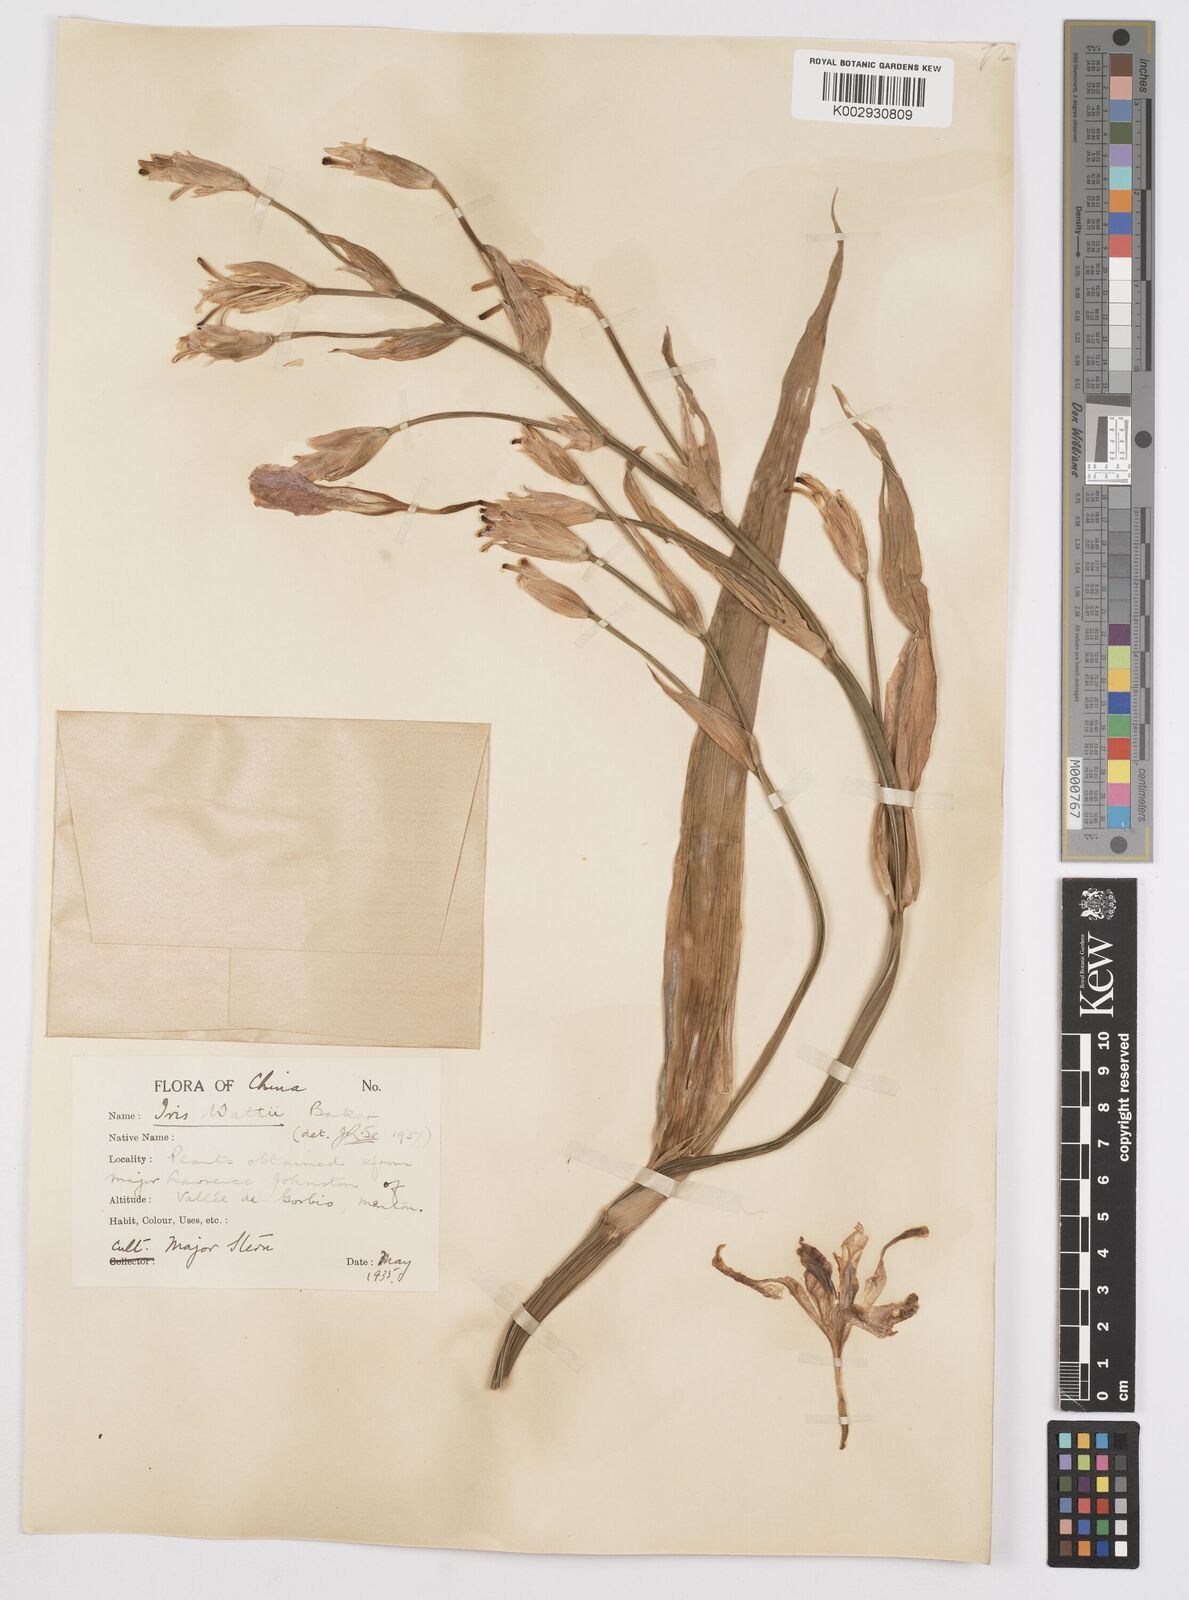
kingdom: Plantae
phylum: Tracheophyta
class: Liliopsida
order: Asparagales
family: Iridaceae
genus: Iris
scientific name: Iris wattii
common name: Fan-shape iris
